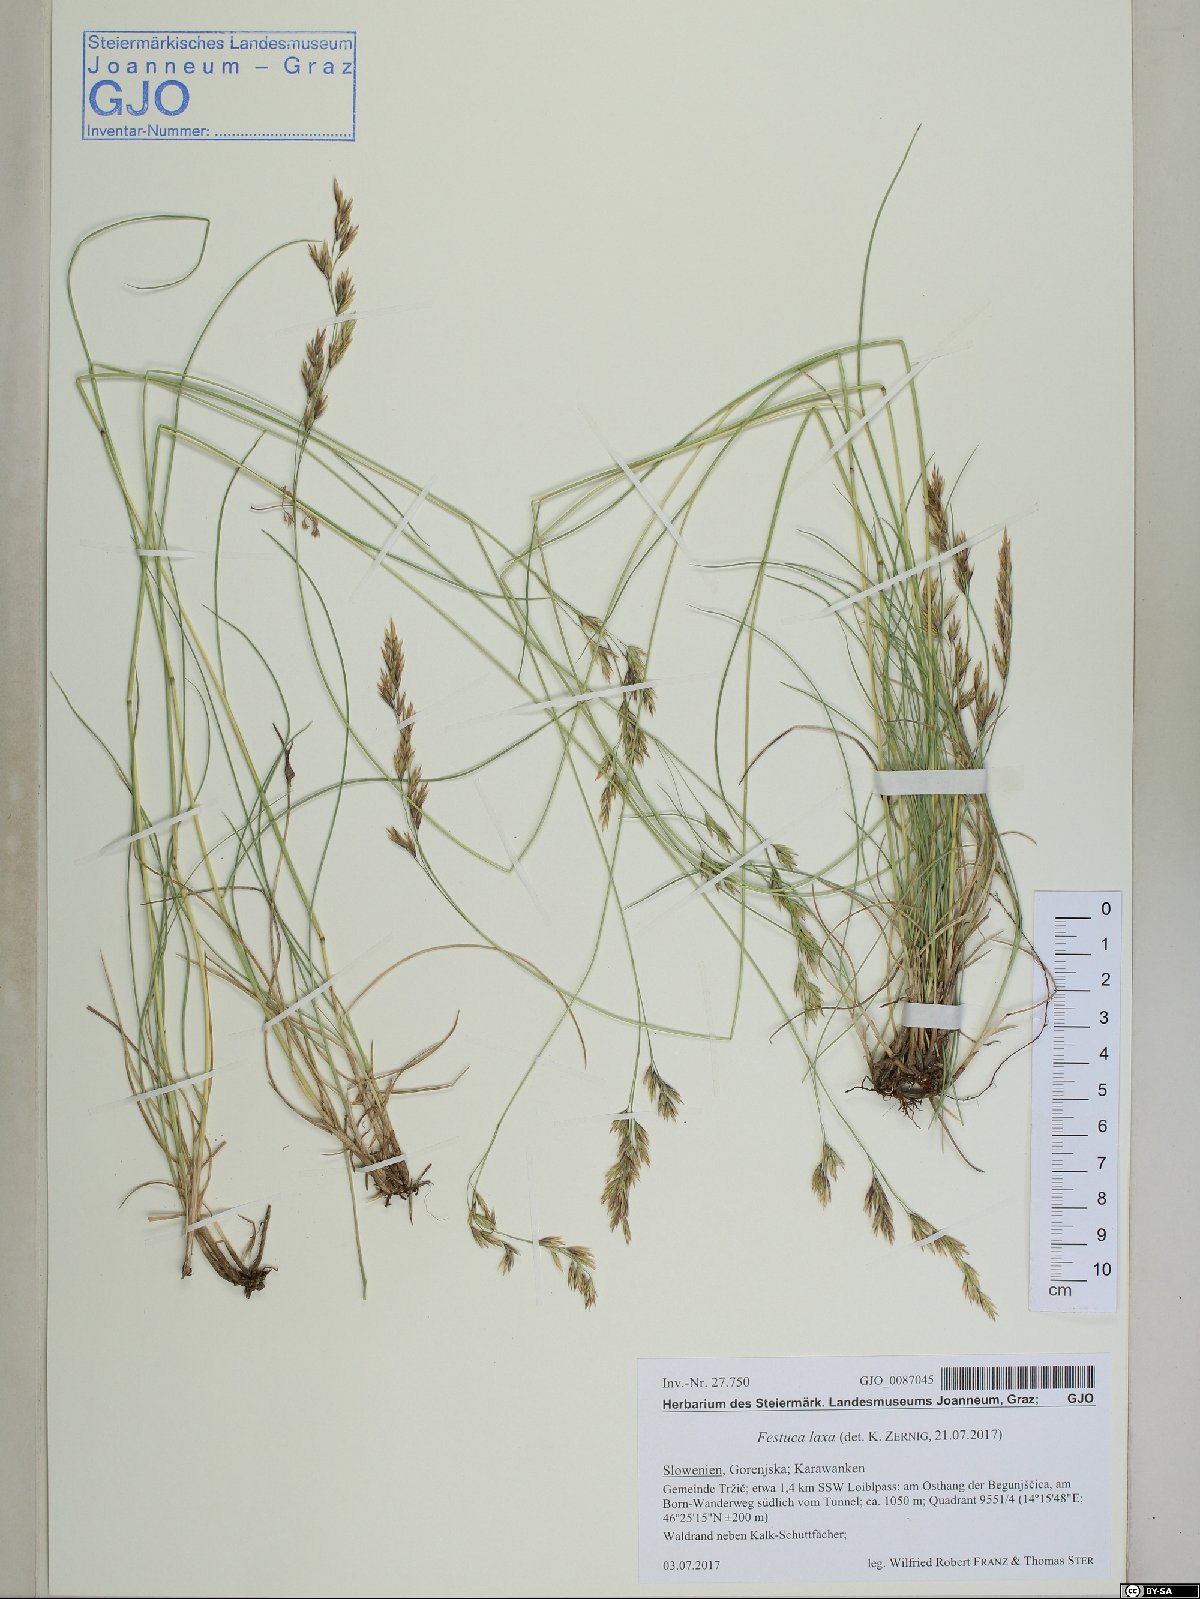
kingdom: Plantae
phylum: Tracheophyta
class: Liliopsida
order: Poales
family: Poaceae
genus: Festuca
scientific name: Festuca laxa
